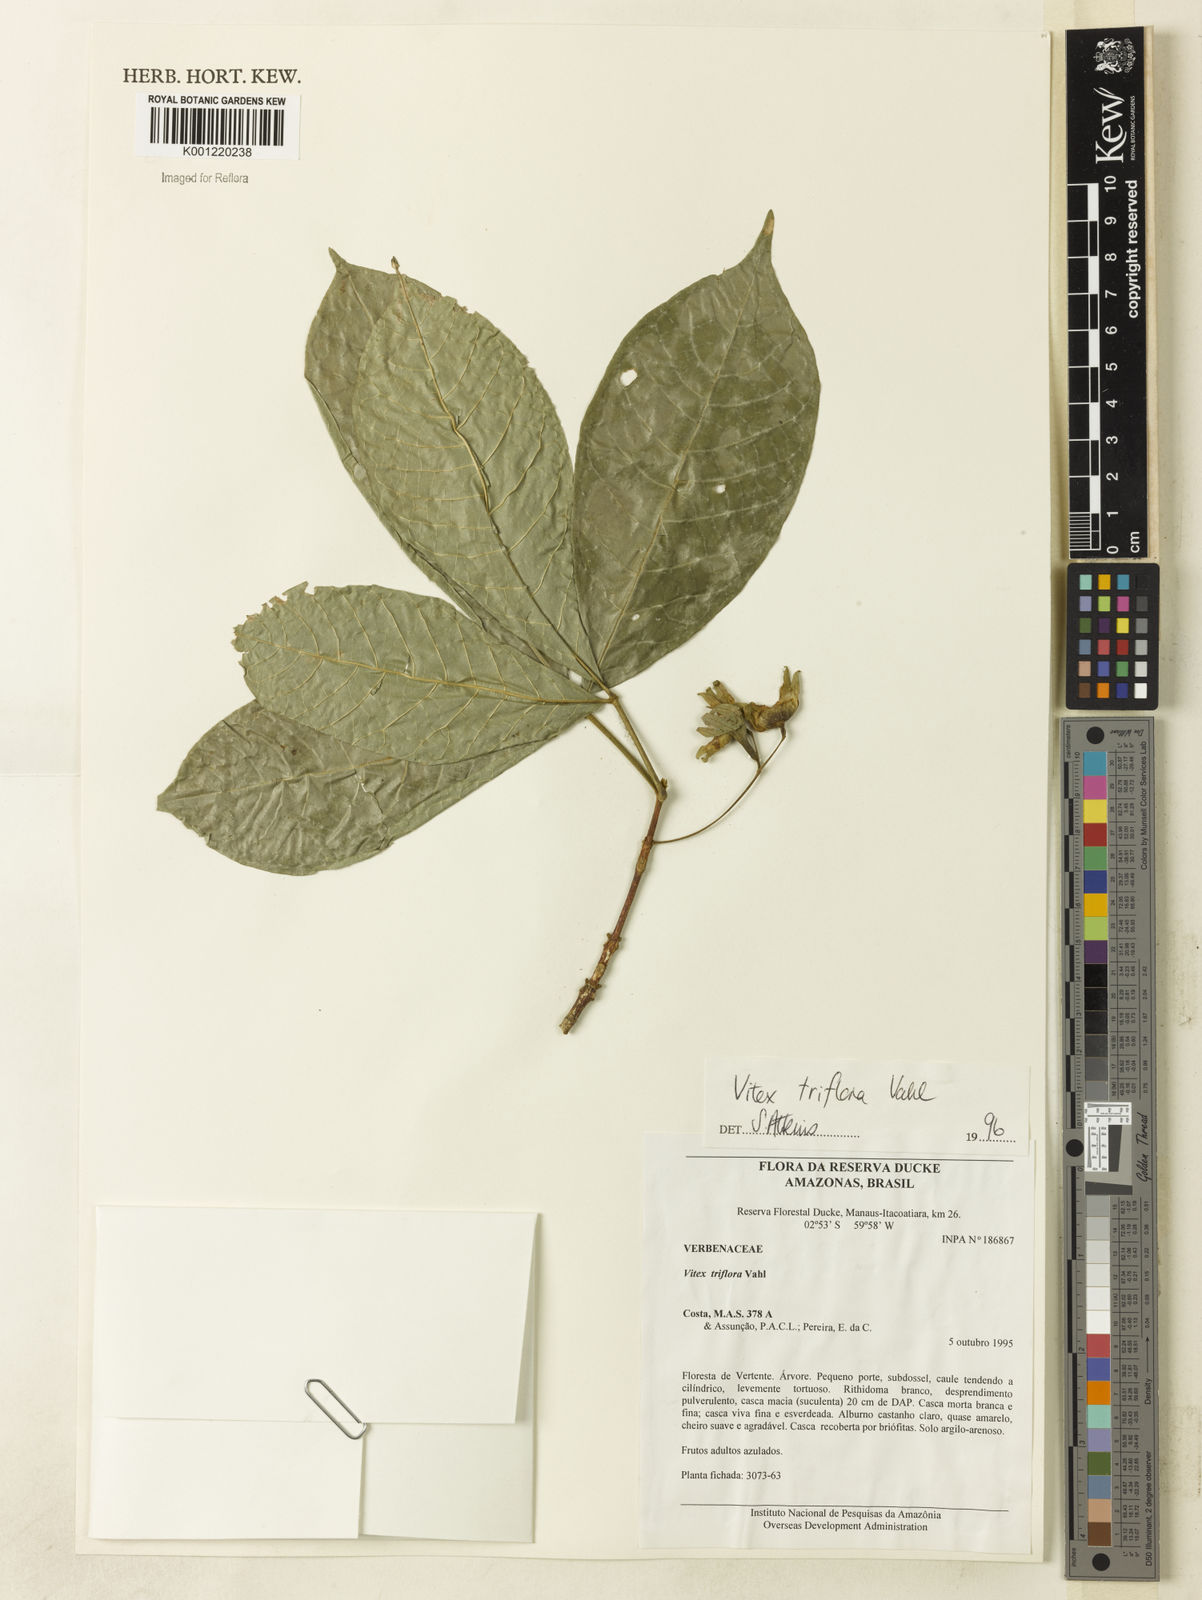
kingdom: Plantae
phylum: Tracheophyta
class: Magnoliopsida
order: Lamiales
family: Lamiaceae
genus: Vitex
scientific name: Vitex triflora
